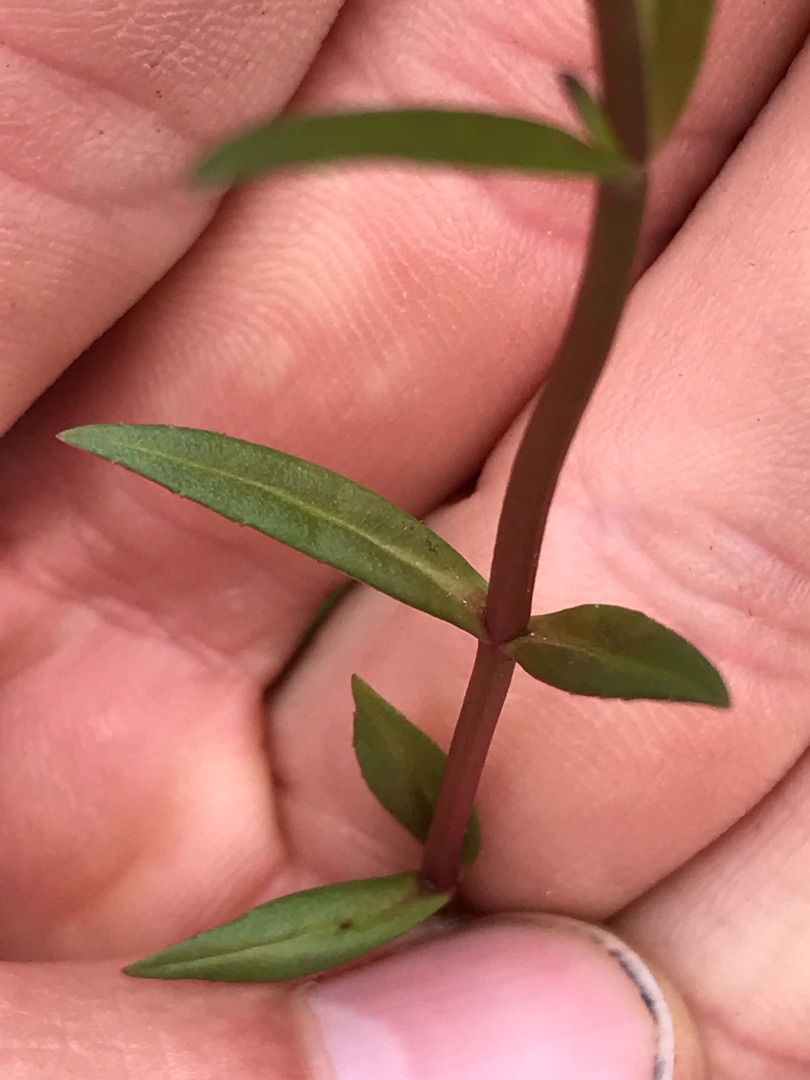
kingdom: Plantae
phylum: Tracheophyta
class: Magnoliopsida
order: Lamiales
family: Plantaginaceae
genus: Veronica
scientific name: Veronica scutellata
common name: Smalbladet ærenpris
